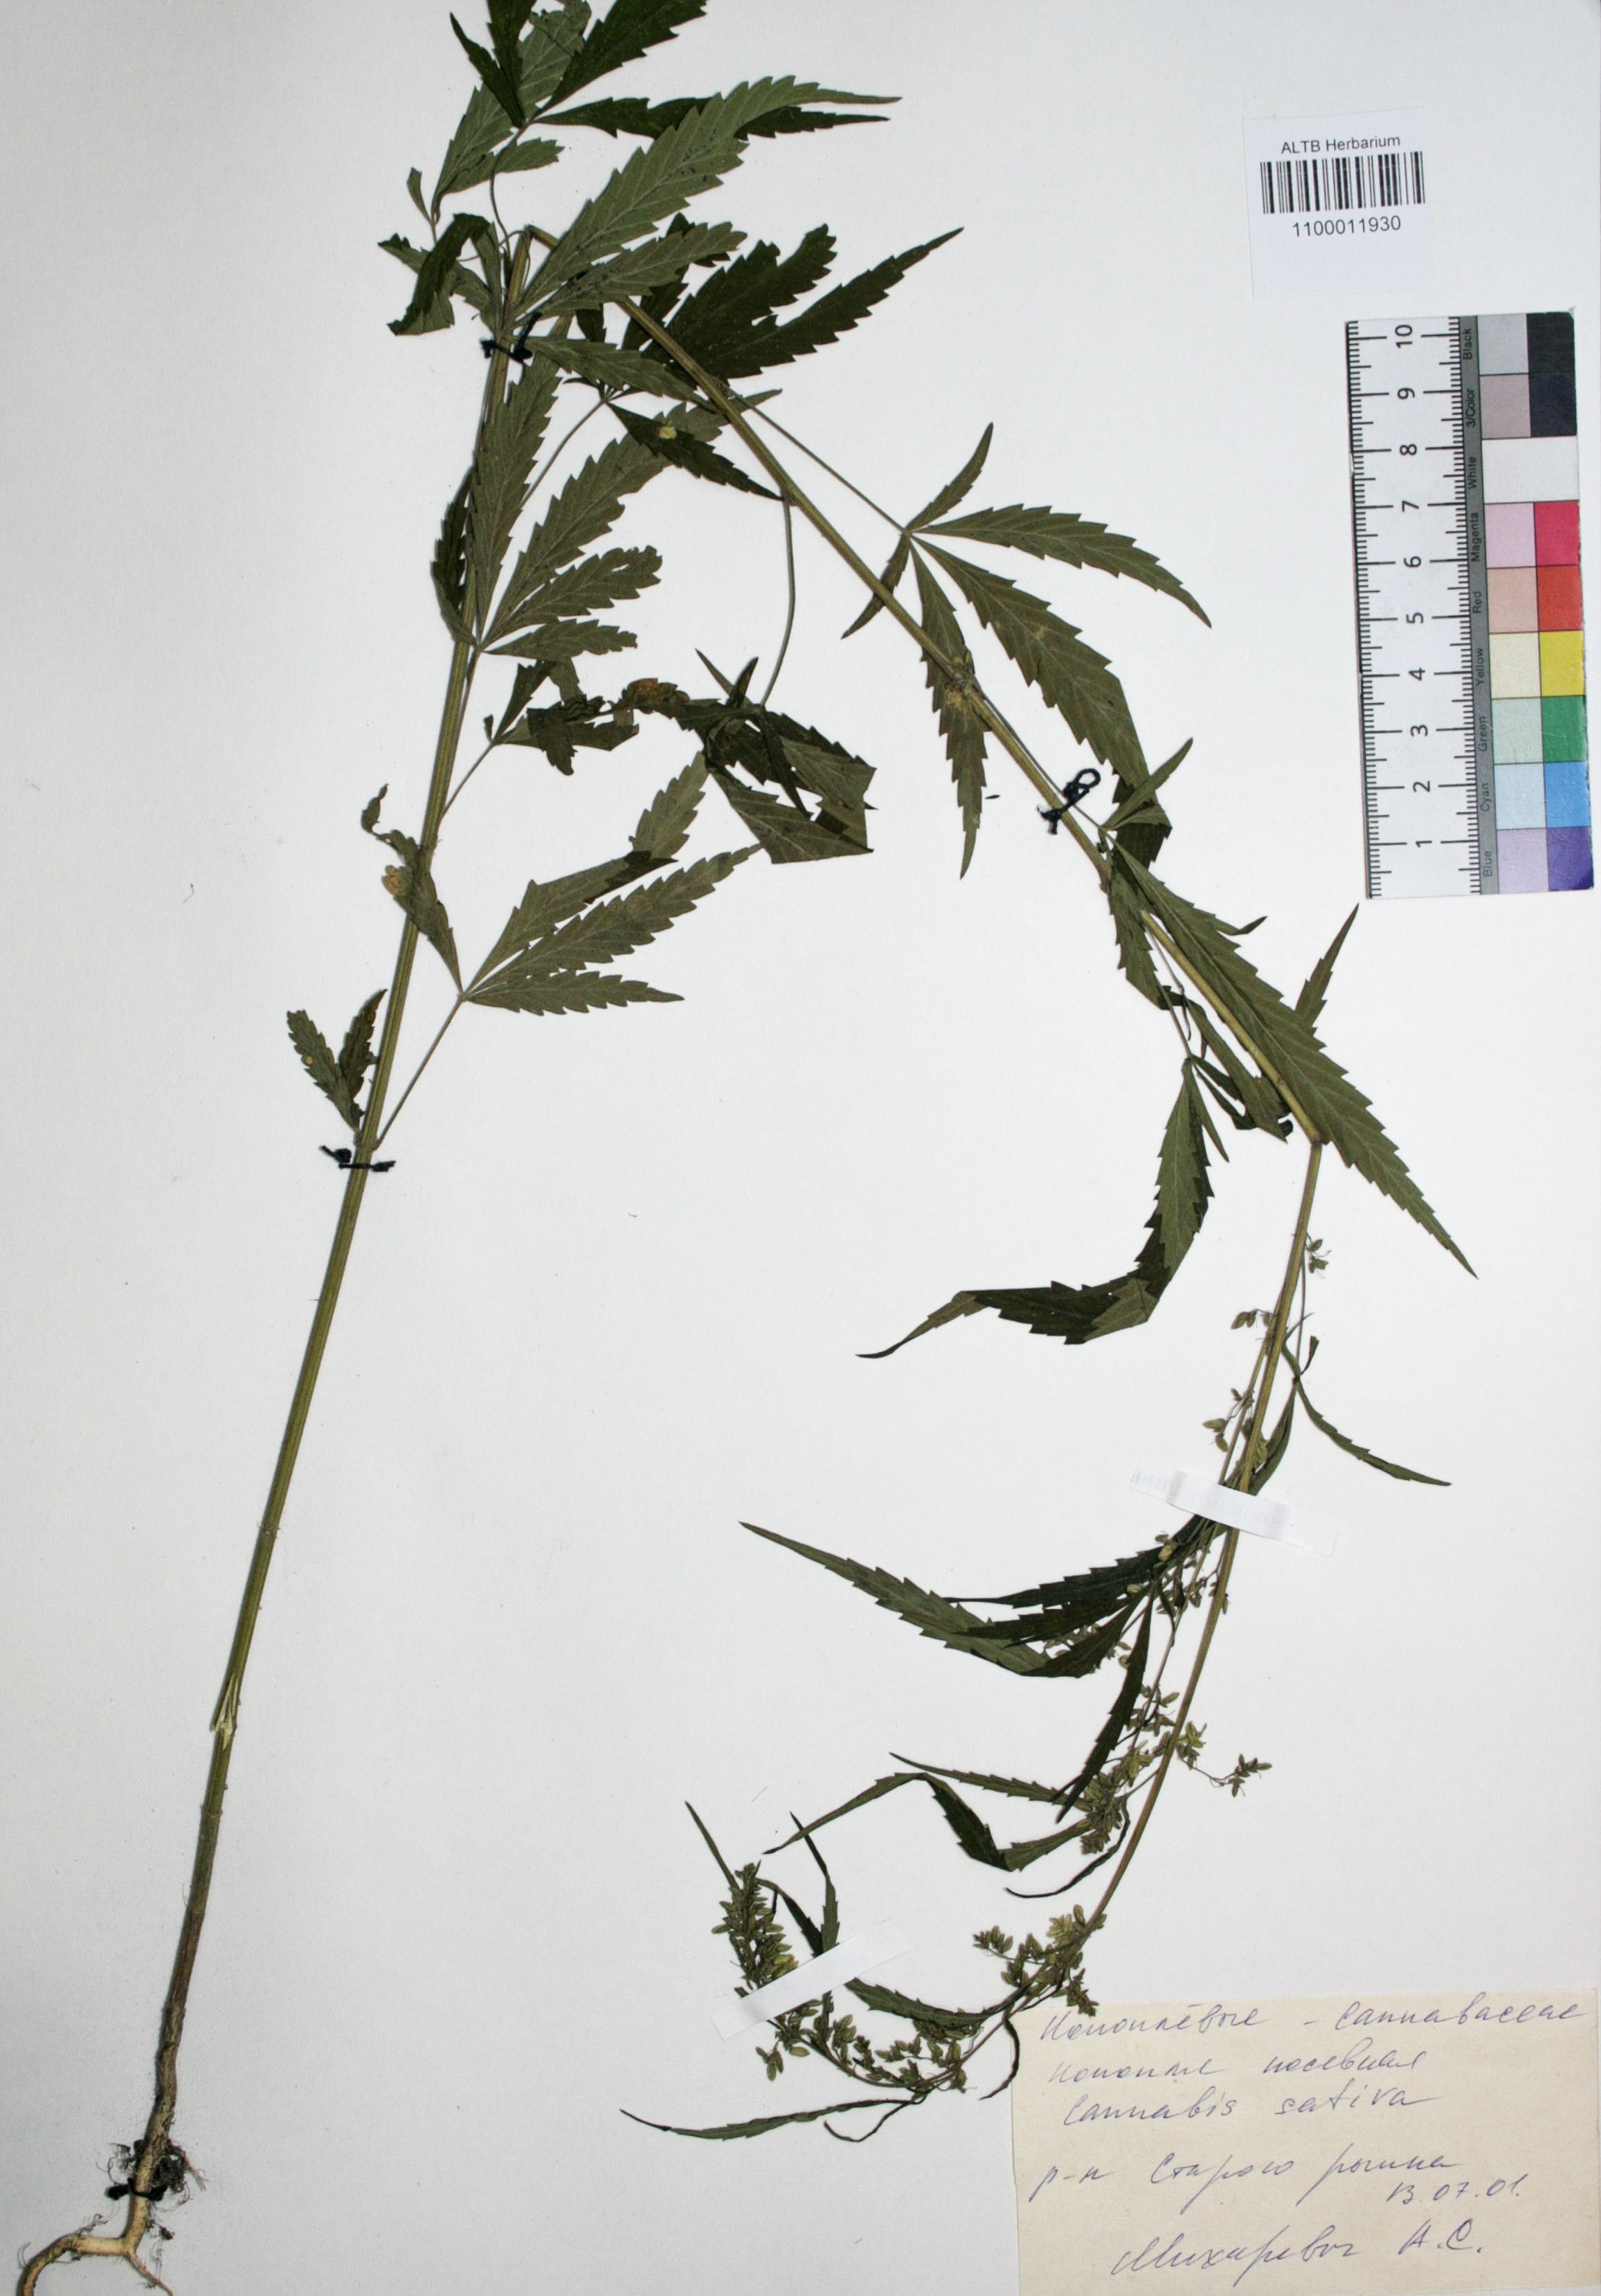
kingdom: Plantae
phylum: Tracheophyta
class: Magnoliopsida
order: Rosales
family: Cannabaceae
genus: Cannabis
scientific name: Cannabis sativa
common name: Hemp
